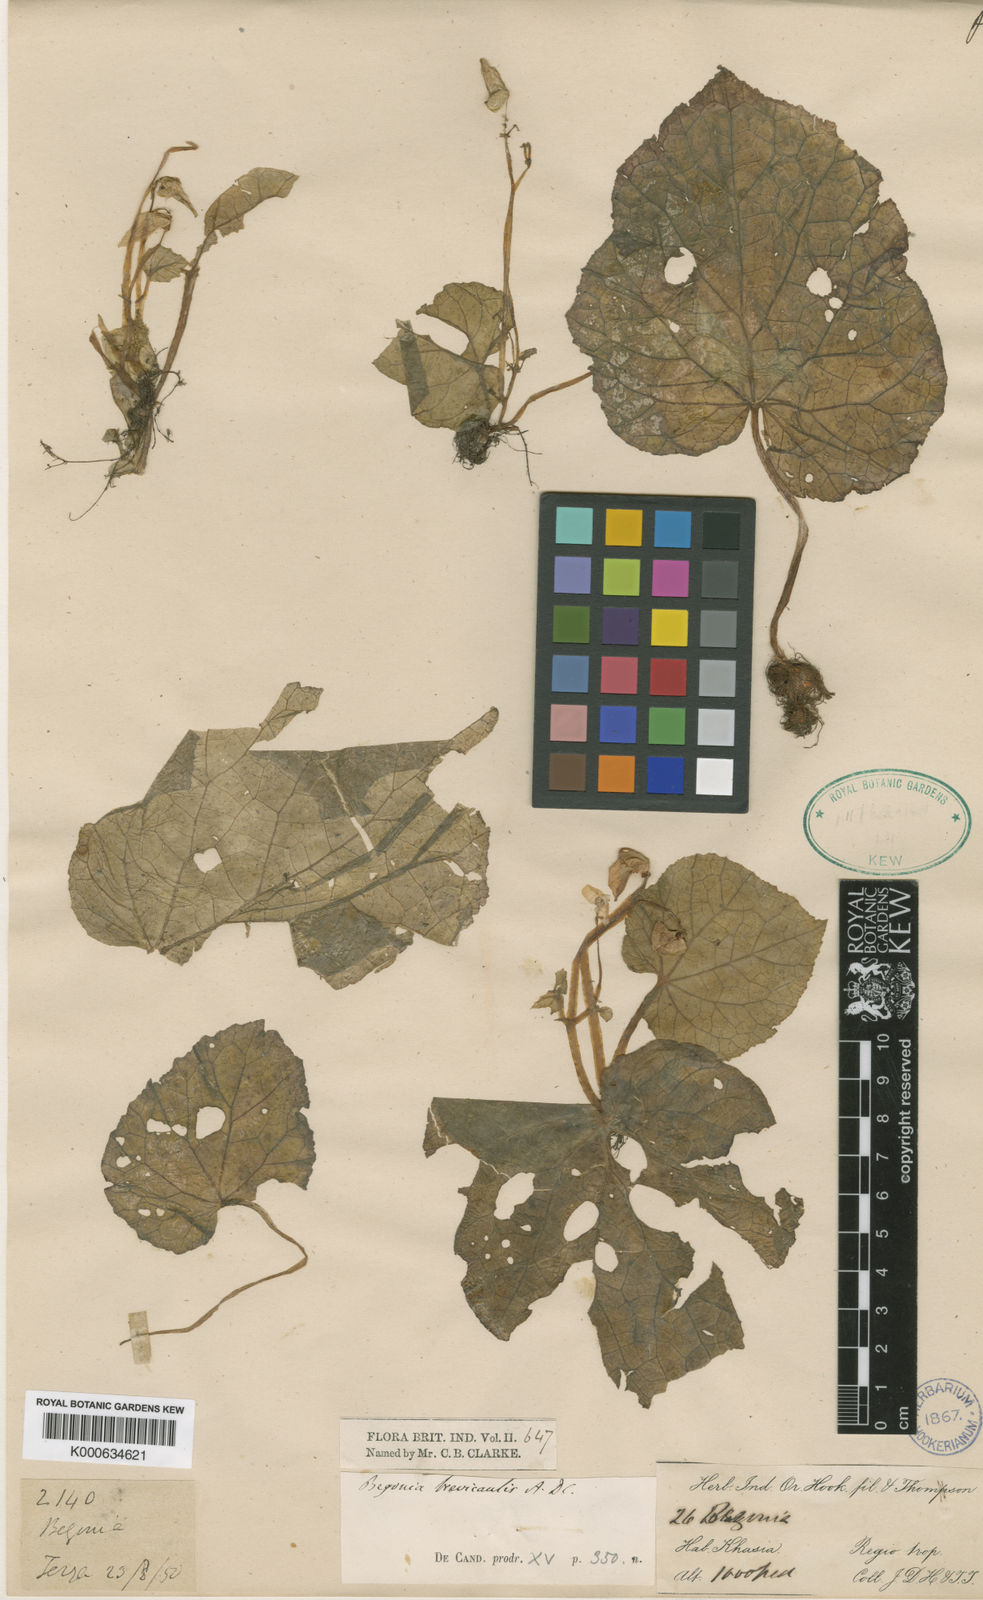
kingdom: Plantae
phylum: Tracheophyta
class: Magnoliopsida
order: Cucurbitales
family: Begoniaceae
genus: Begonia
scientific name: Begonia brevicaulis
